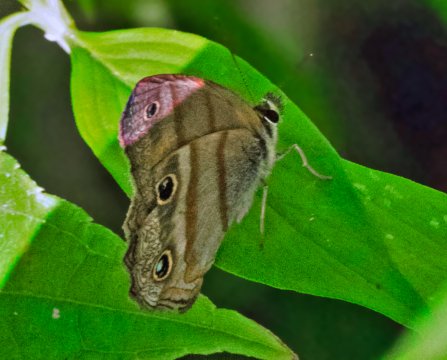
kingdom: Animalia
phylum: Arthropoda
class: Insecta
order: Lepidoptera
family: Nymphalidae
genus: Argyreuptychia
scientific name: Argyreuptychia penelope
